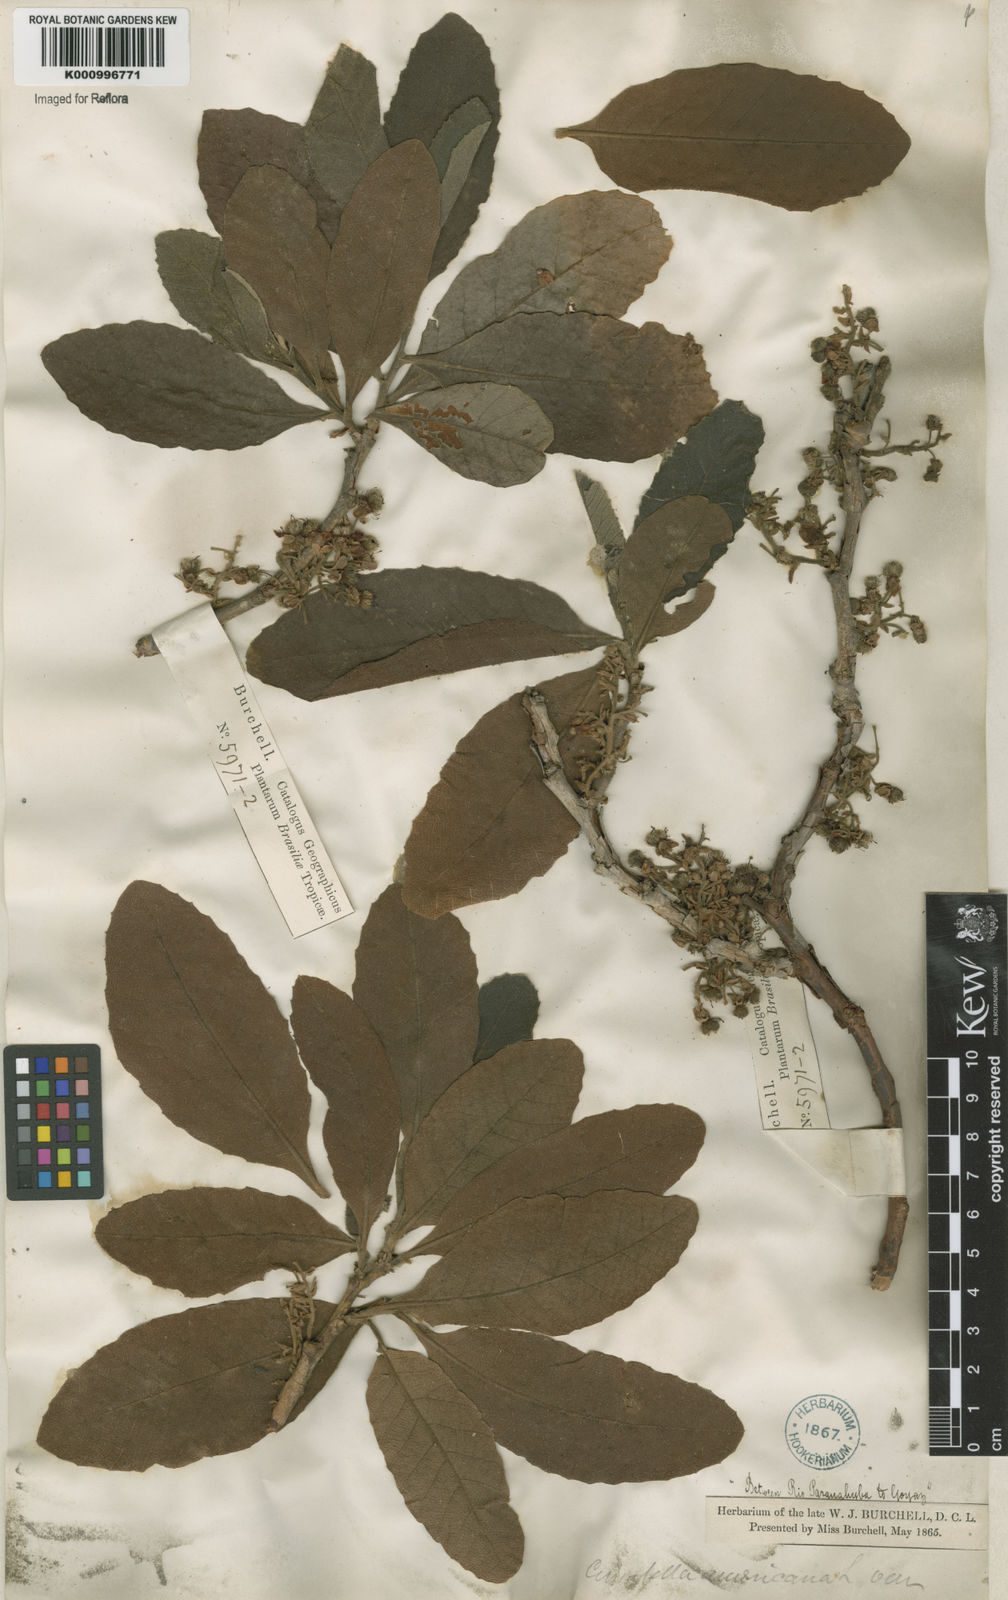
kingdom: Plantae
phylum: Tracheophyta
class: Magnoliopsida
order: Dilleniales
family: Dilleniaceae
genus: Curatella
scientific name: Curatella americana
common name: Sandpaper tree
